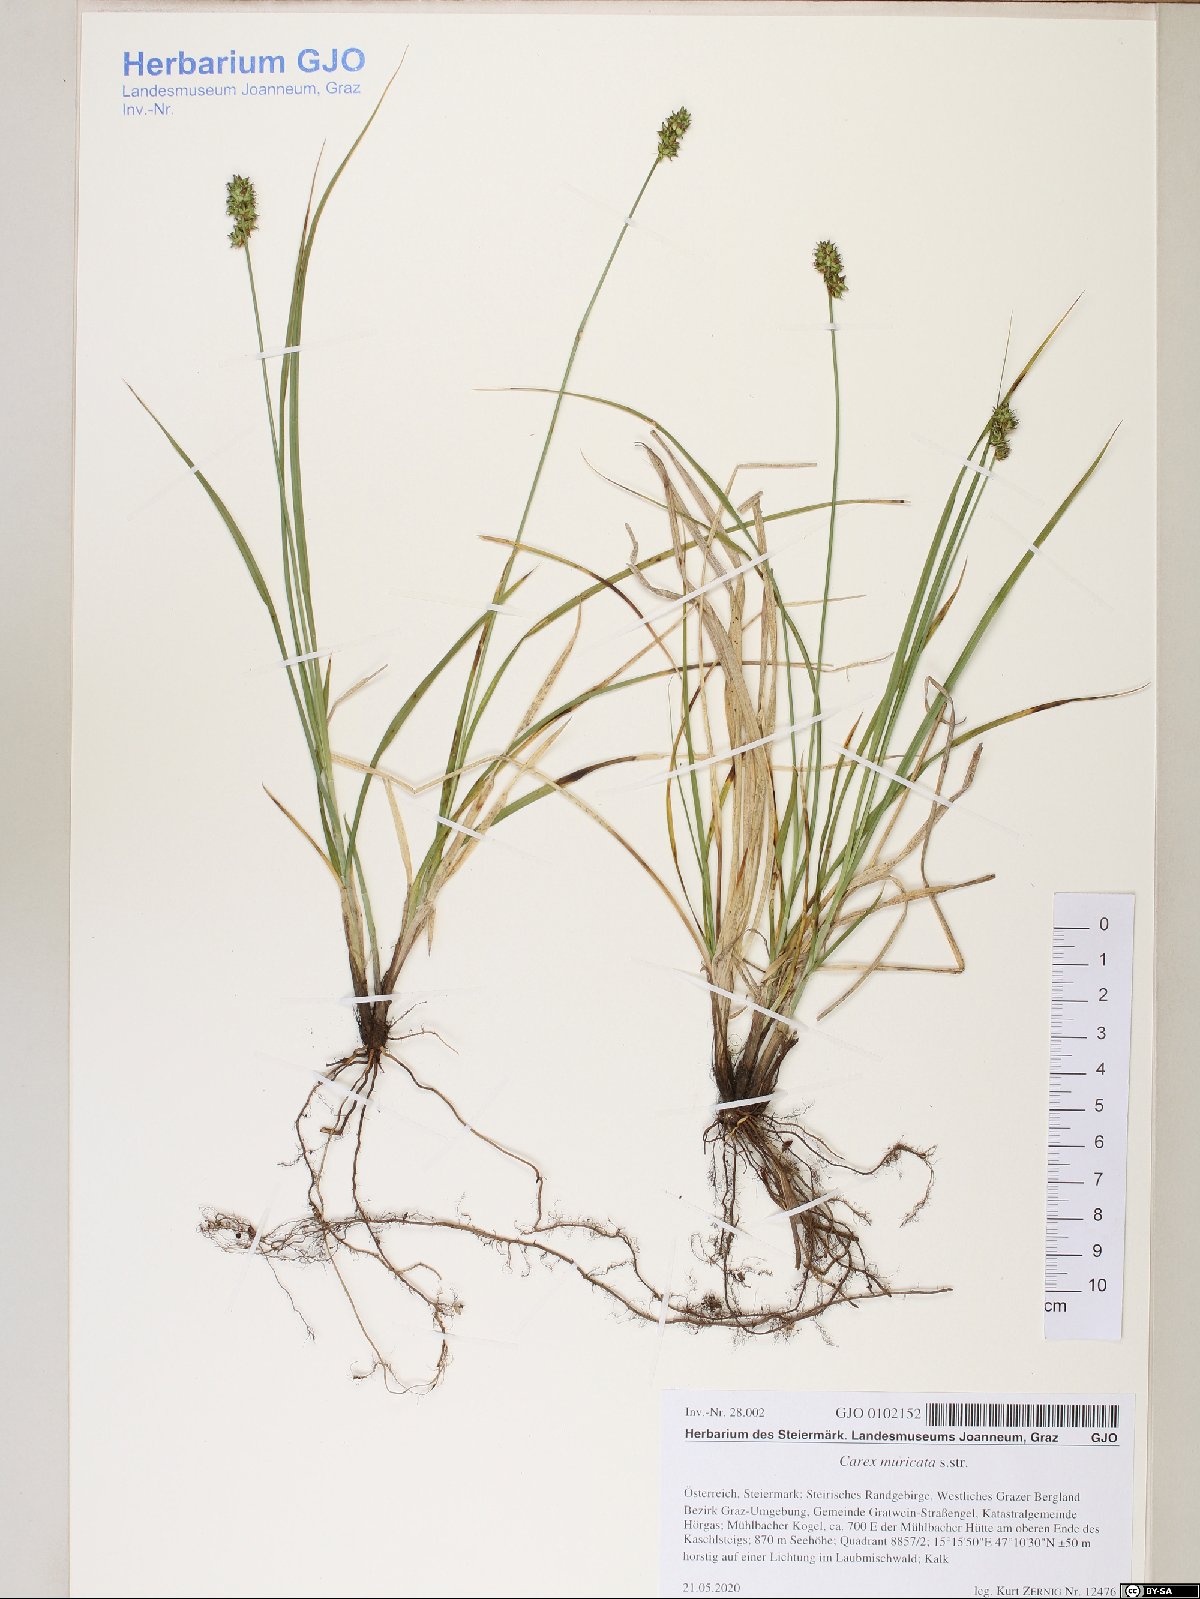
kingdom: Plantae
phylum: Tracheophyta
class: Liliopsida
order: Poales
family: Cyperaceae
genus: Carex
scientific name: Carex muricata
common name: Rough sedge
